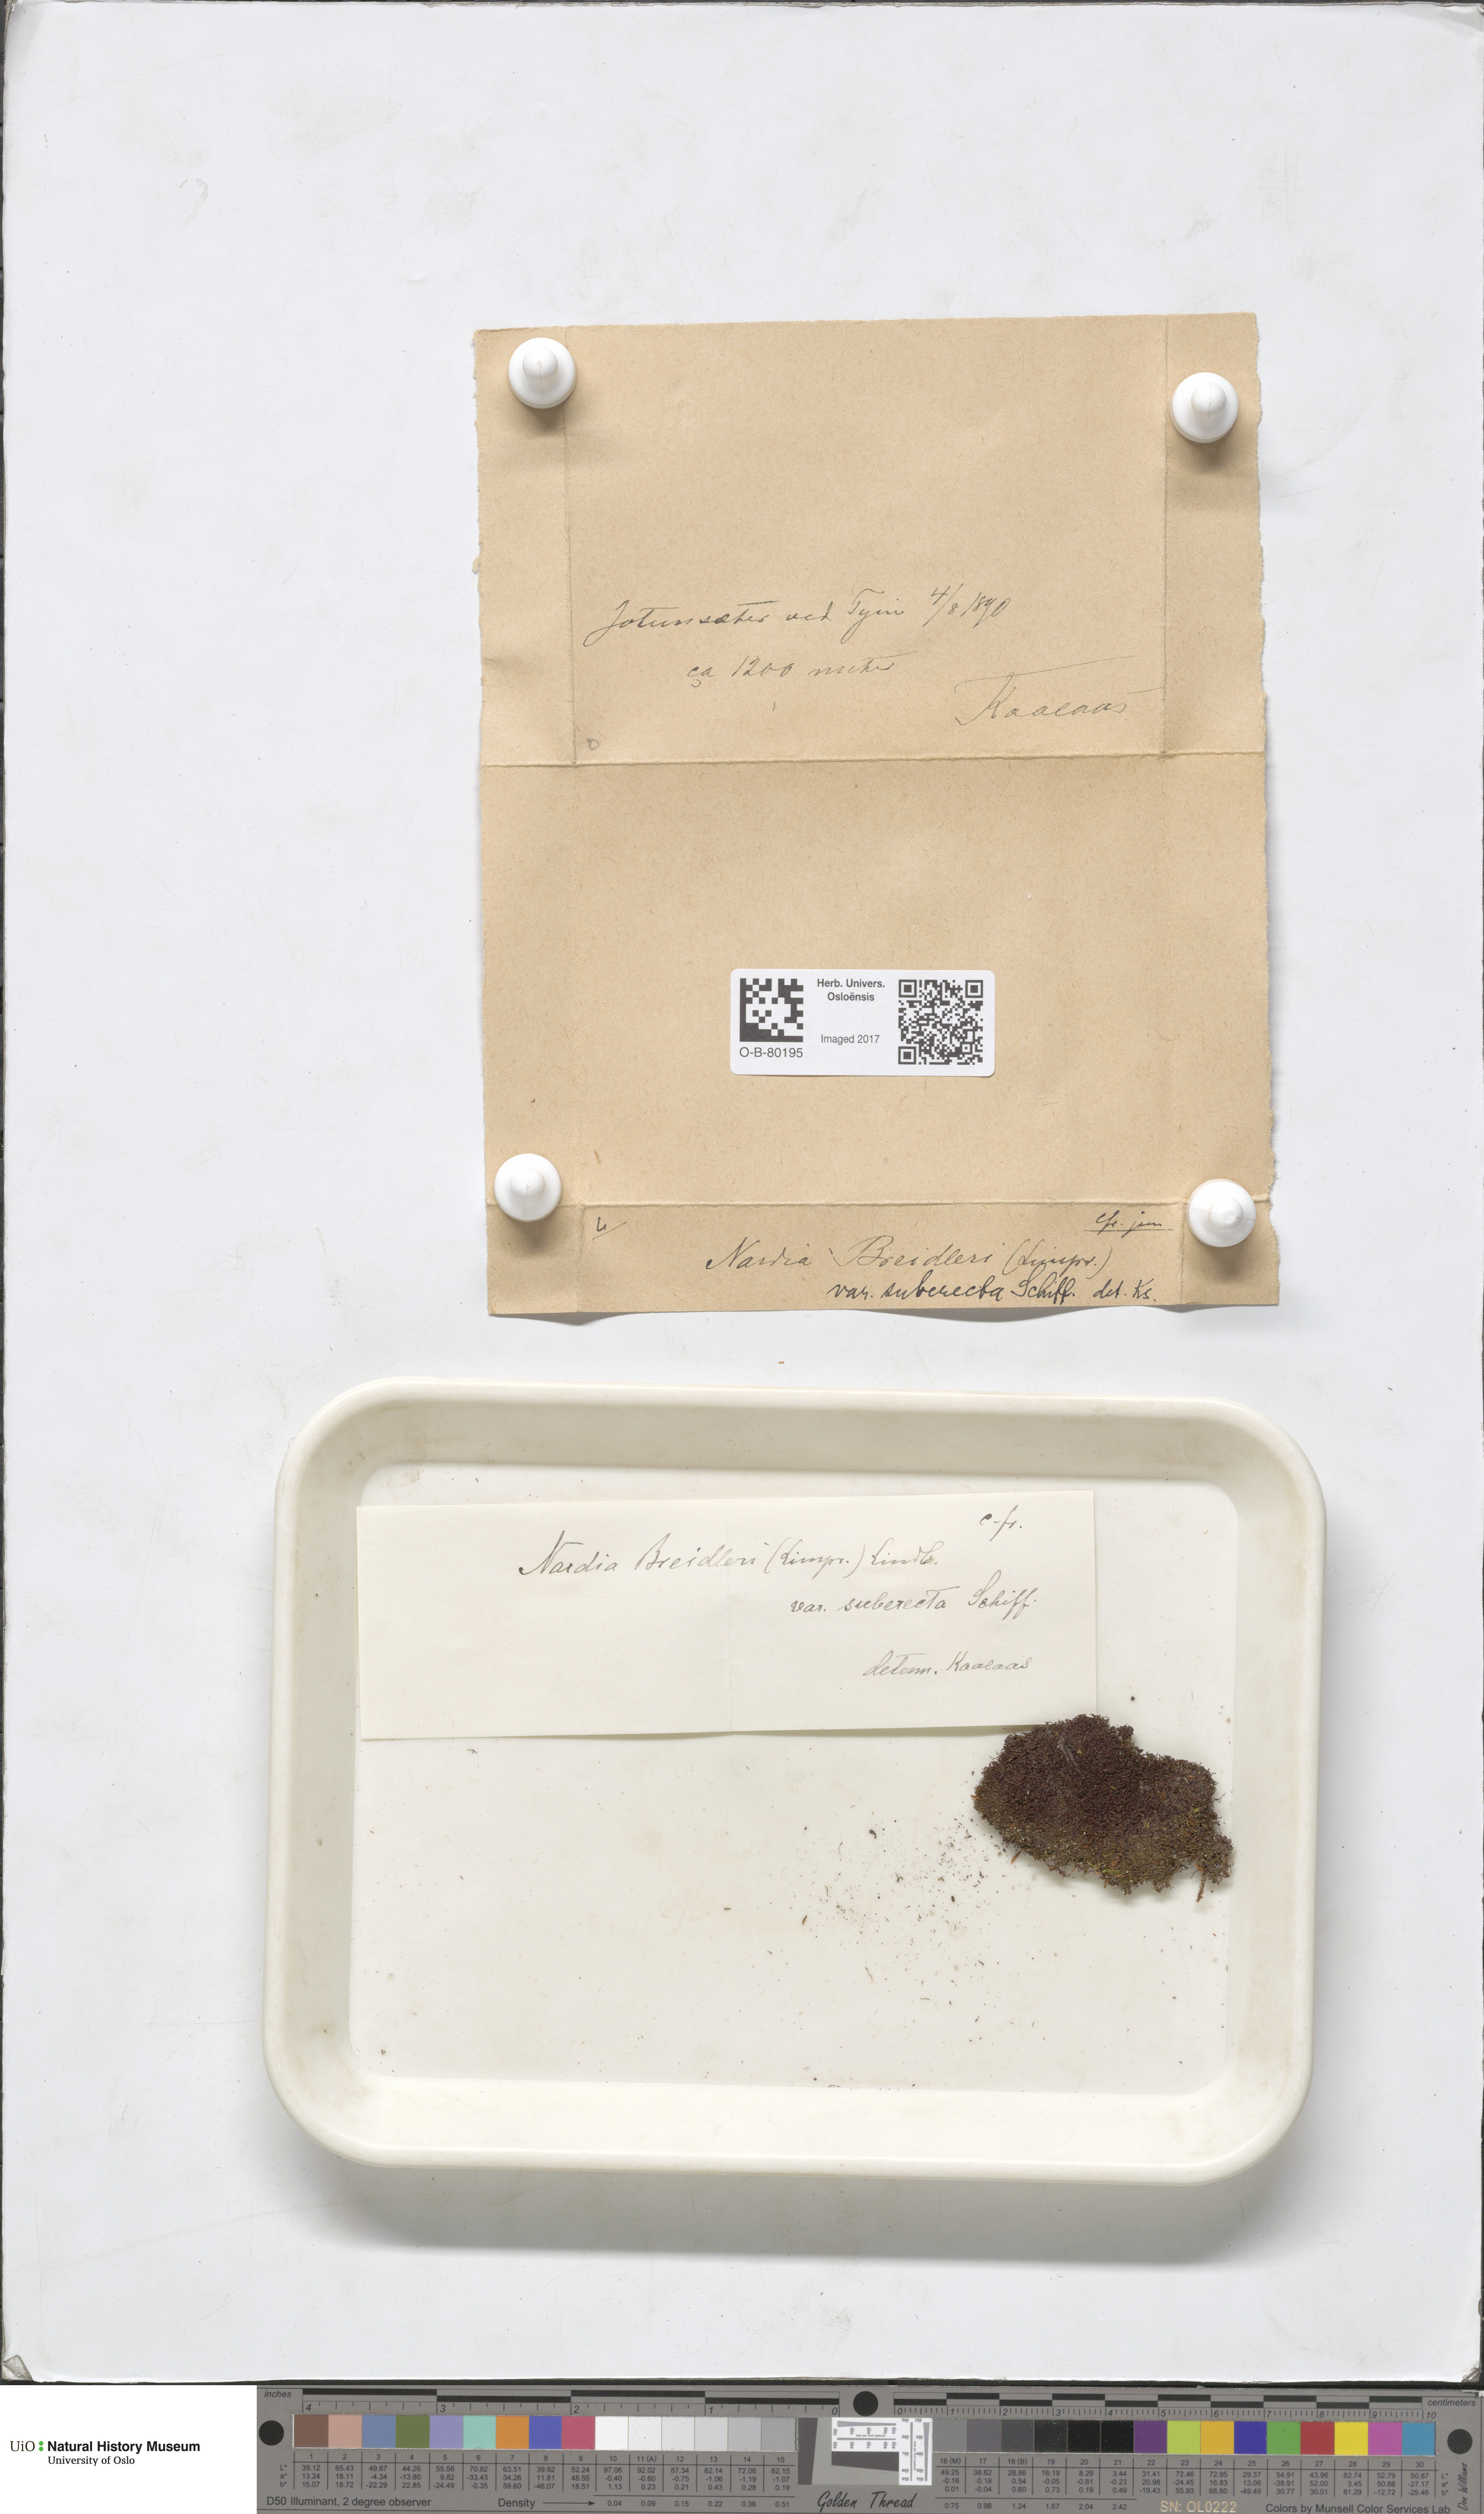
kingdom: Plantae
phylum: Marchantiophyta
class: Jungermanniopsida
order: Jungermanniales
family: Gymnomitriaceae
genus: Nardia
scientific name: Nardia breidleri
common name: Book flapwort
